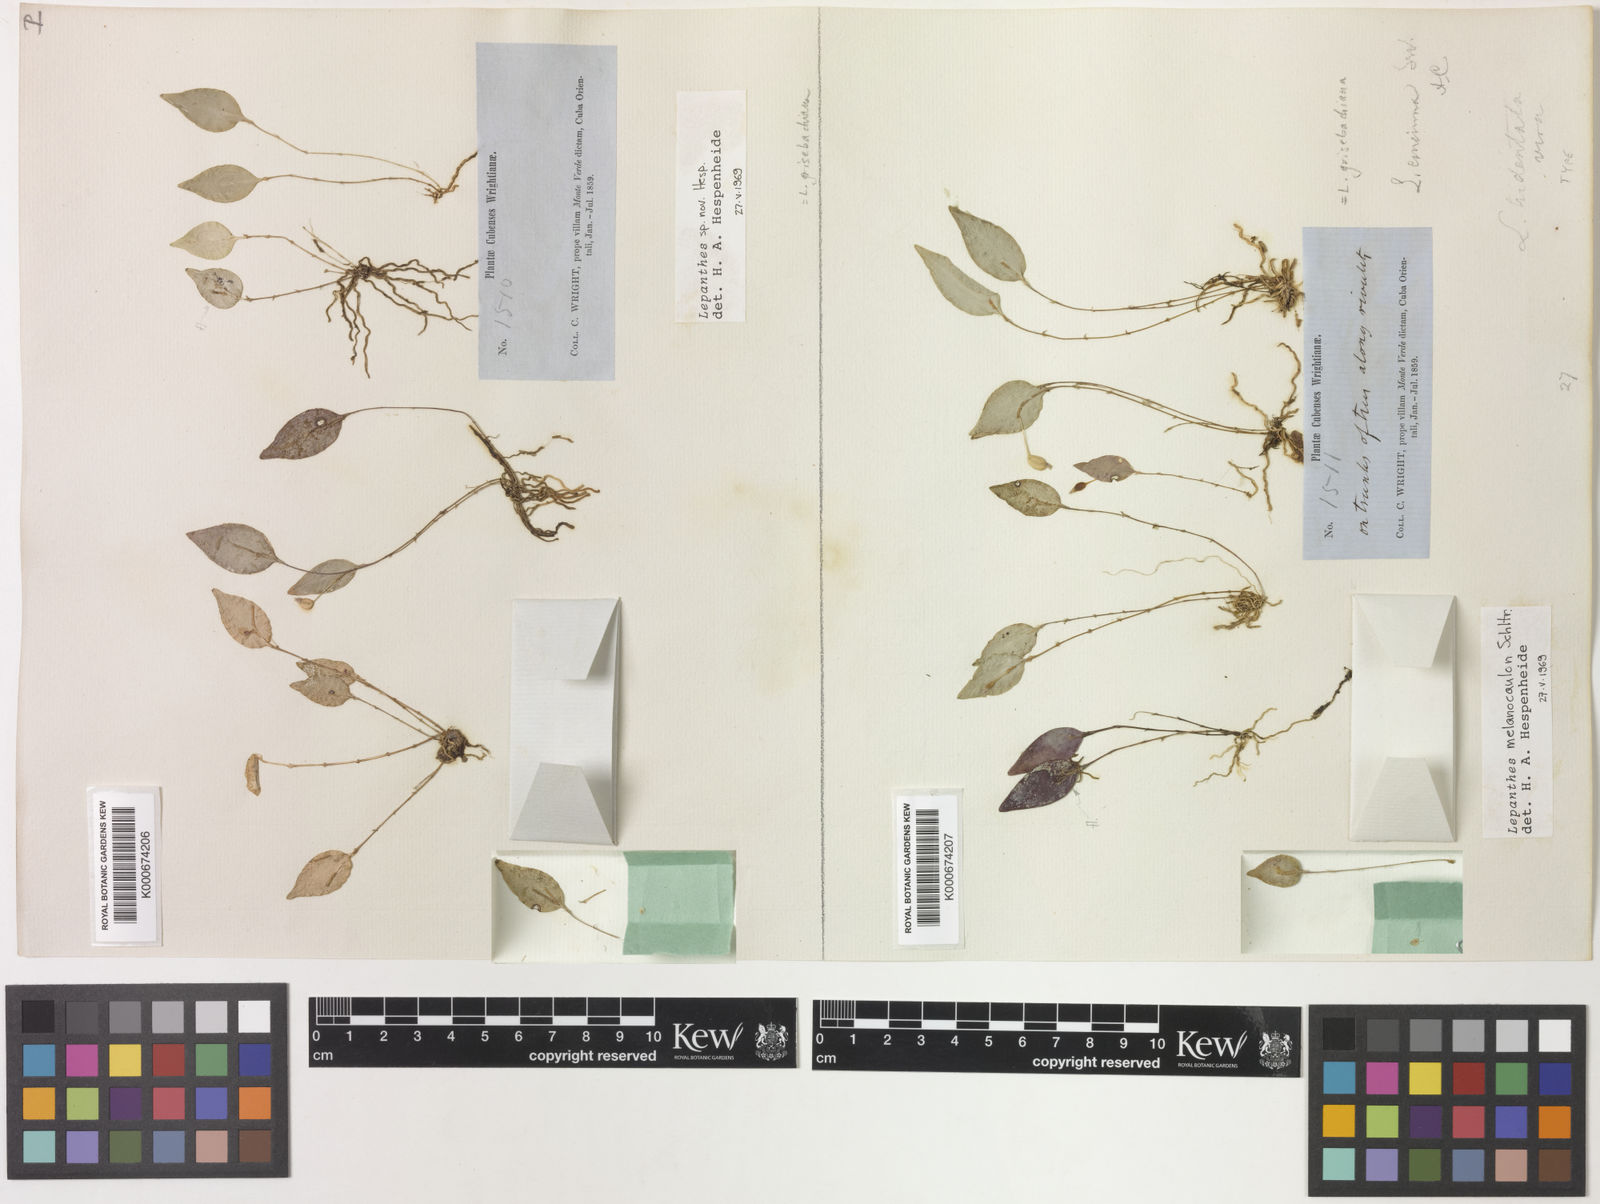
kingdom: Plantae
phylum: Tracheophyta
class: Liliopsida
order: Asparagales
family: Orchidaceae
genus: Lepanthes
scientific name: Lepanthes grisebachiana
